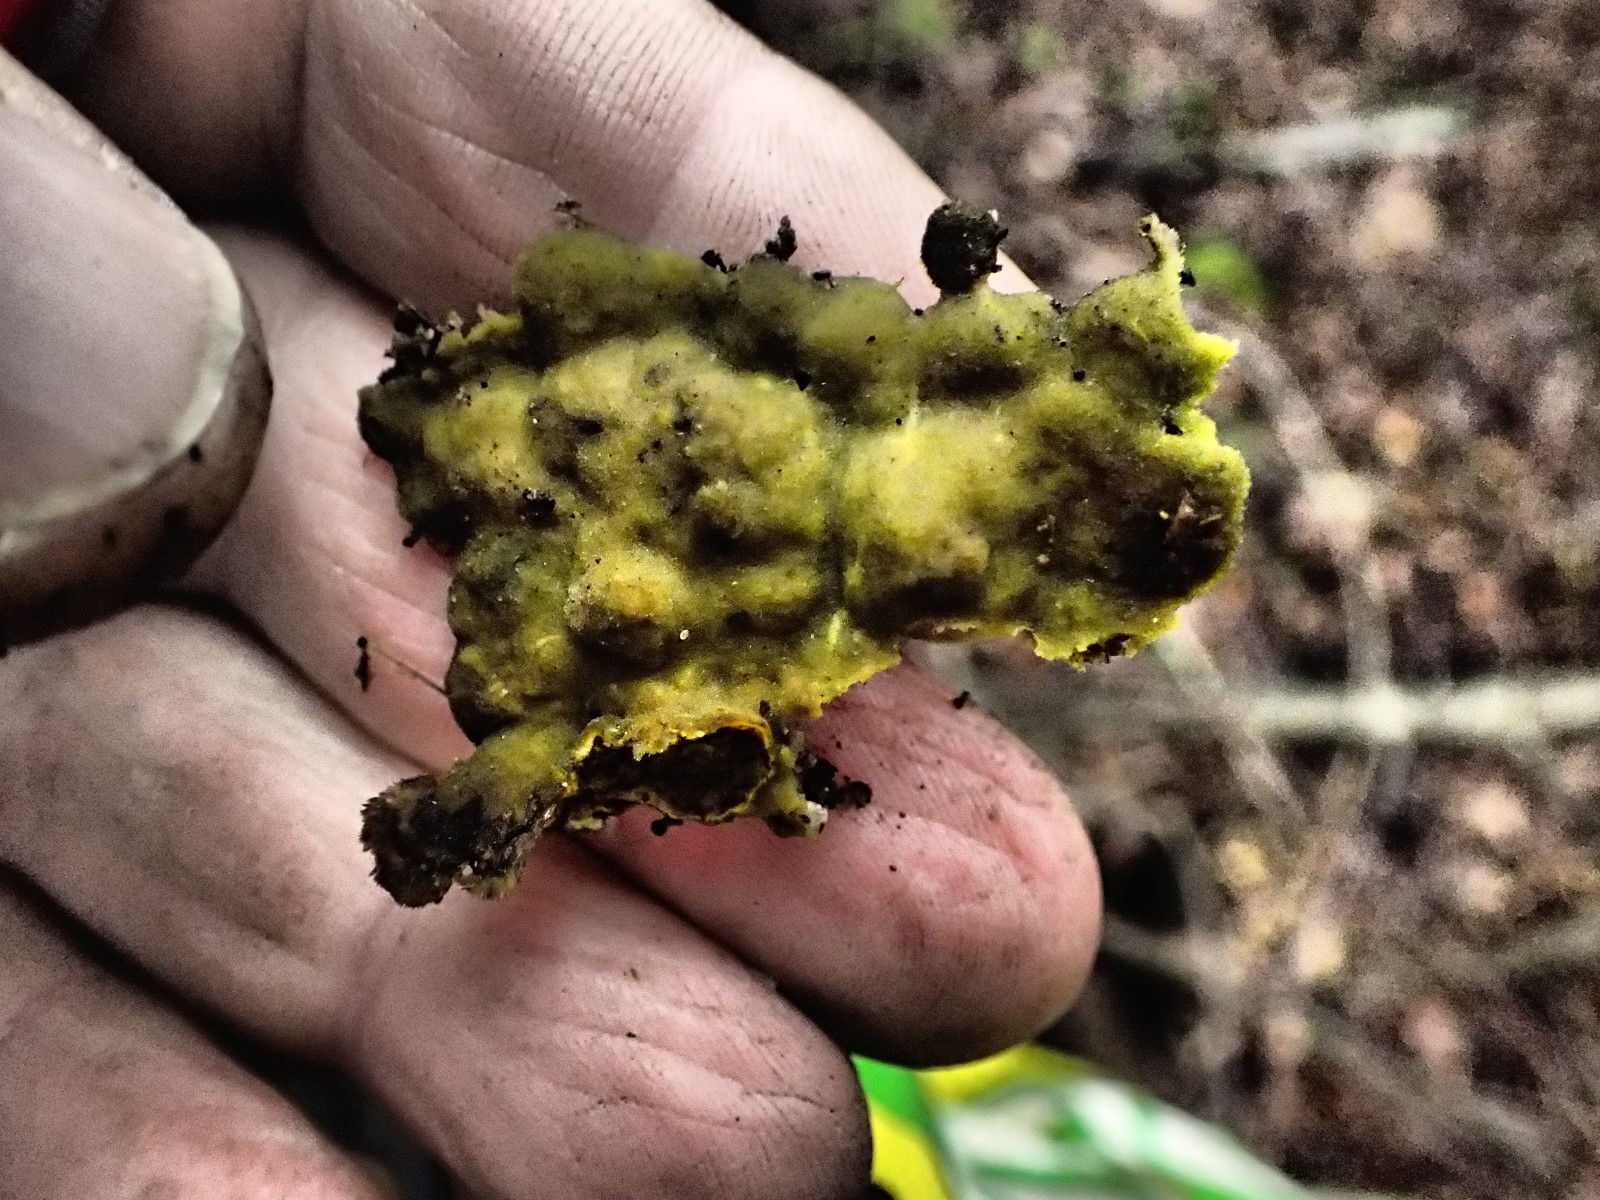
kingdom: Fungi
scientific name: Fungi
